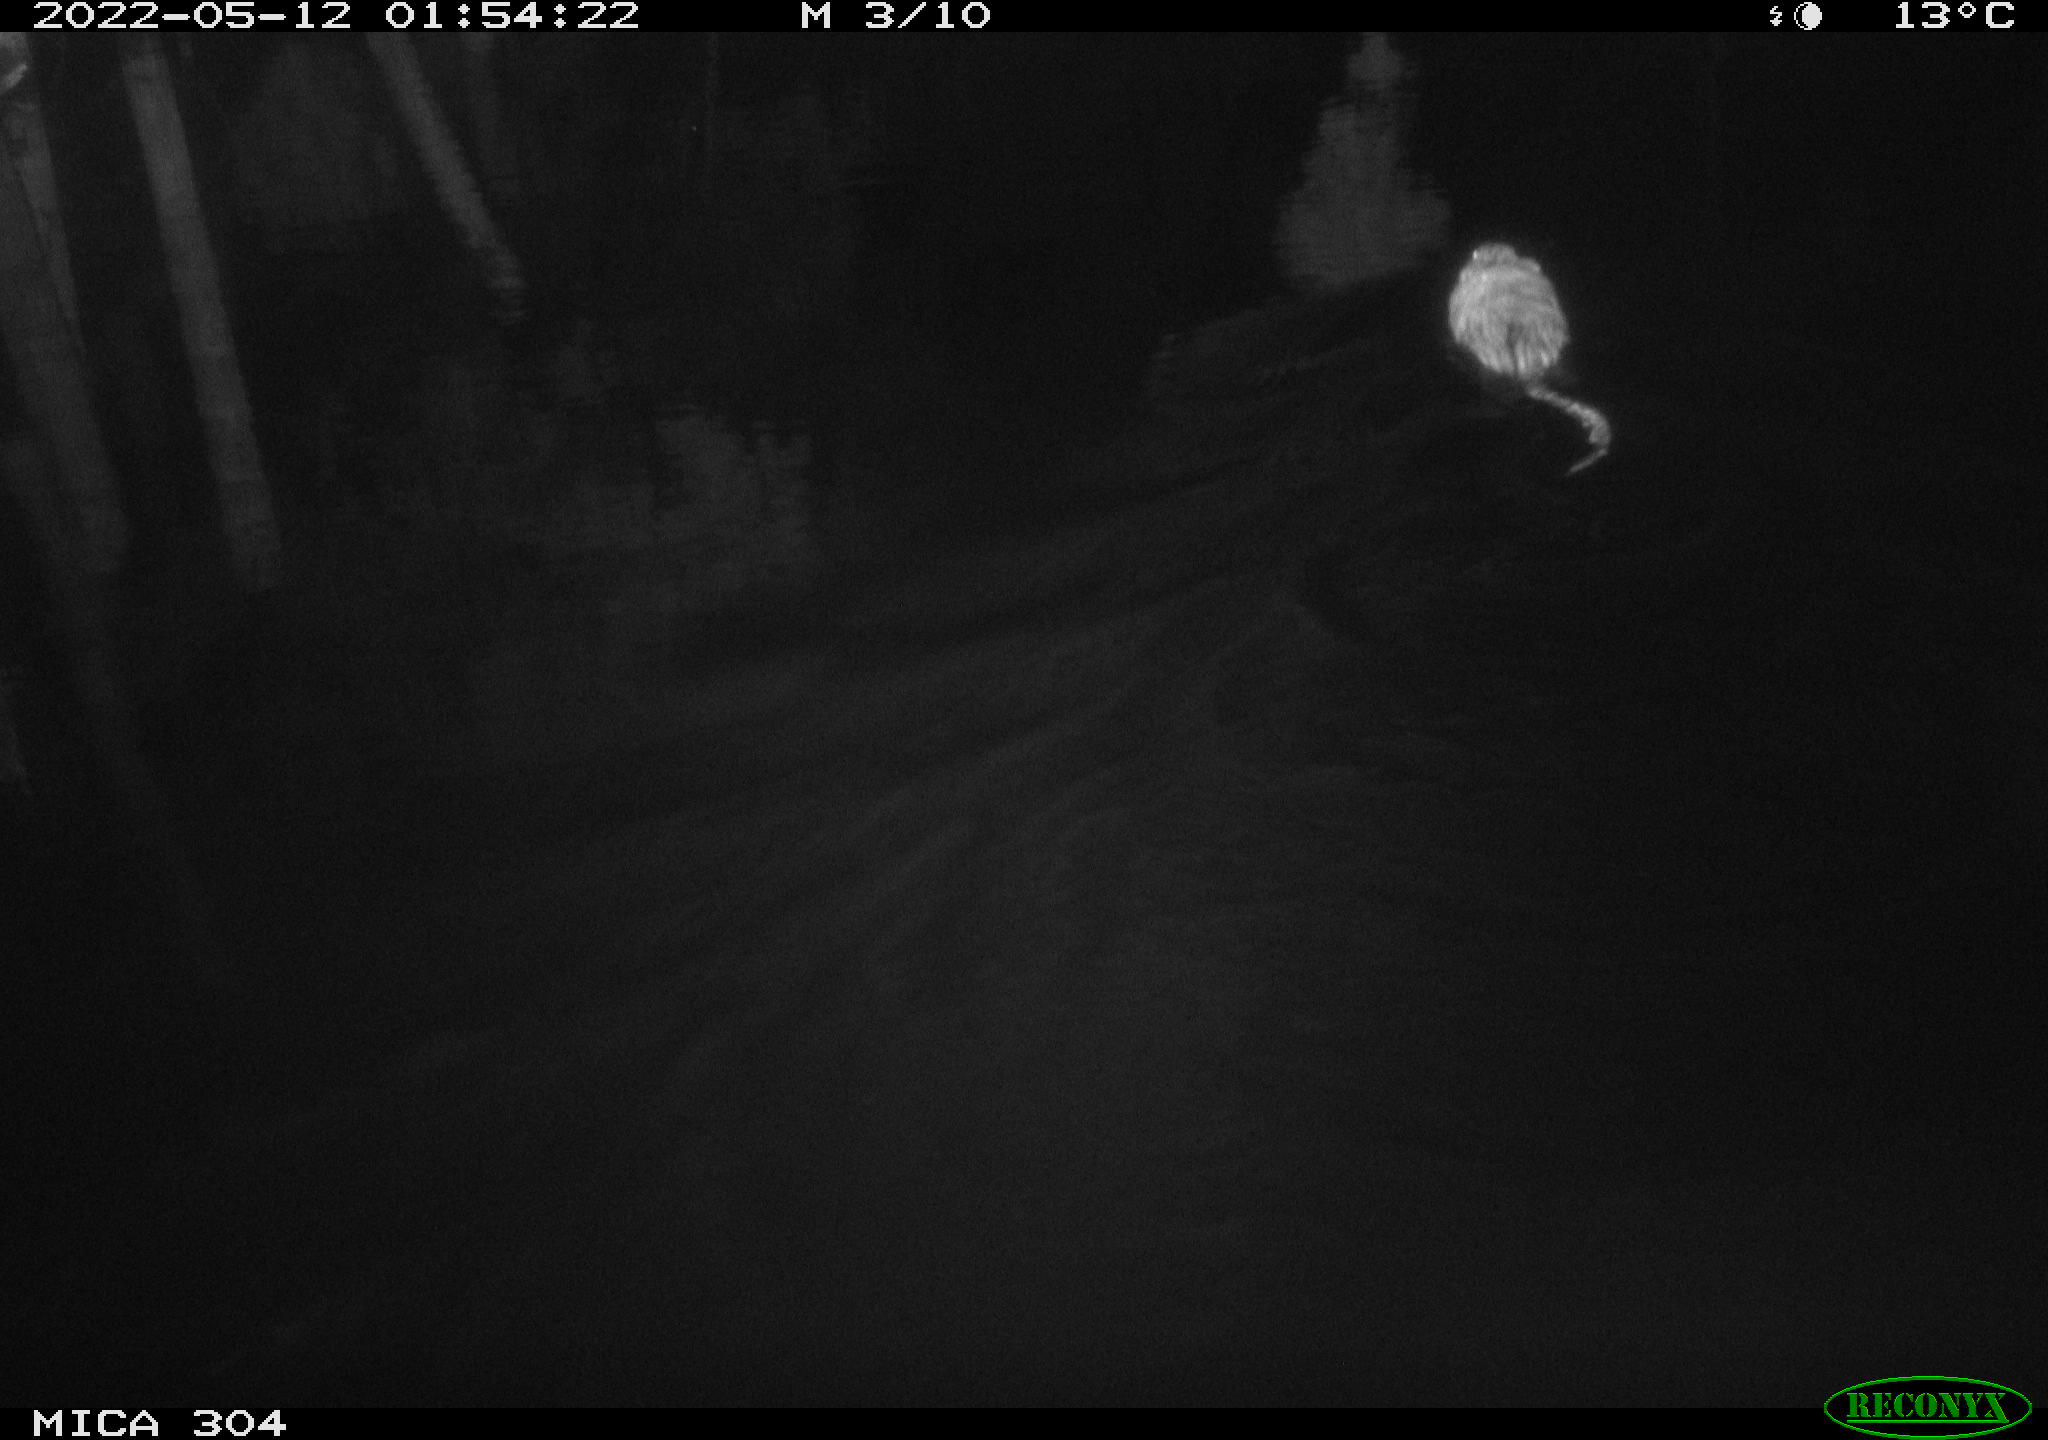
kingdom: Animalia
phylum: Chordata
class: Mammalia
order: Rodentia
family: Cricetidae
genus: Ondatra
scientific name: Ondatra zibethicus
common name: Muskrat
